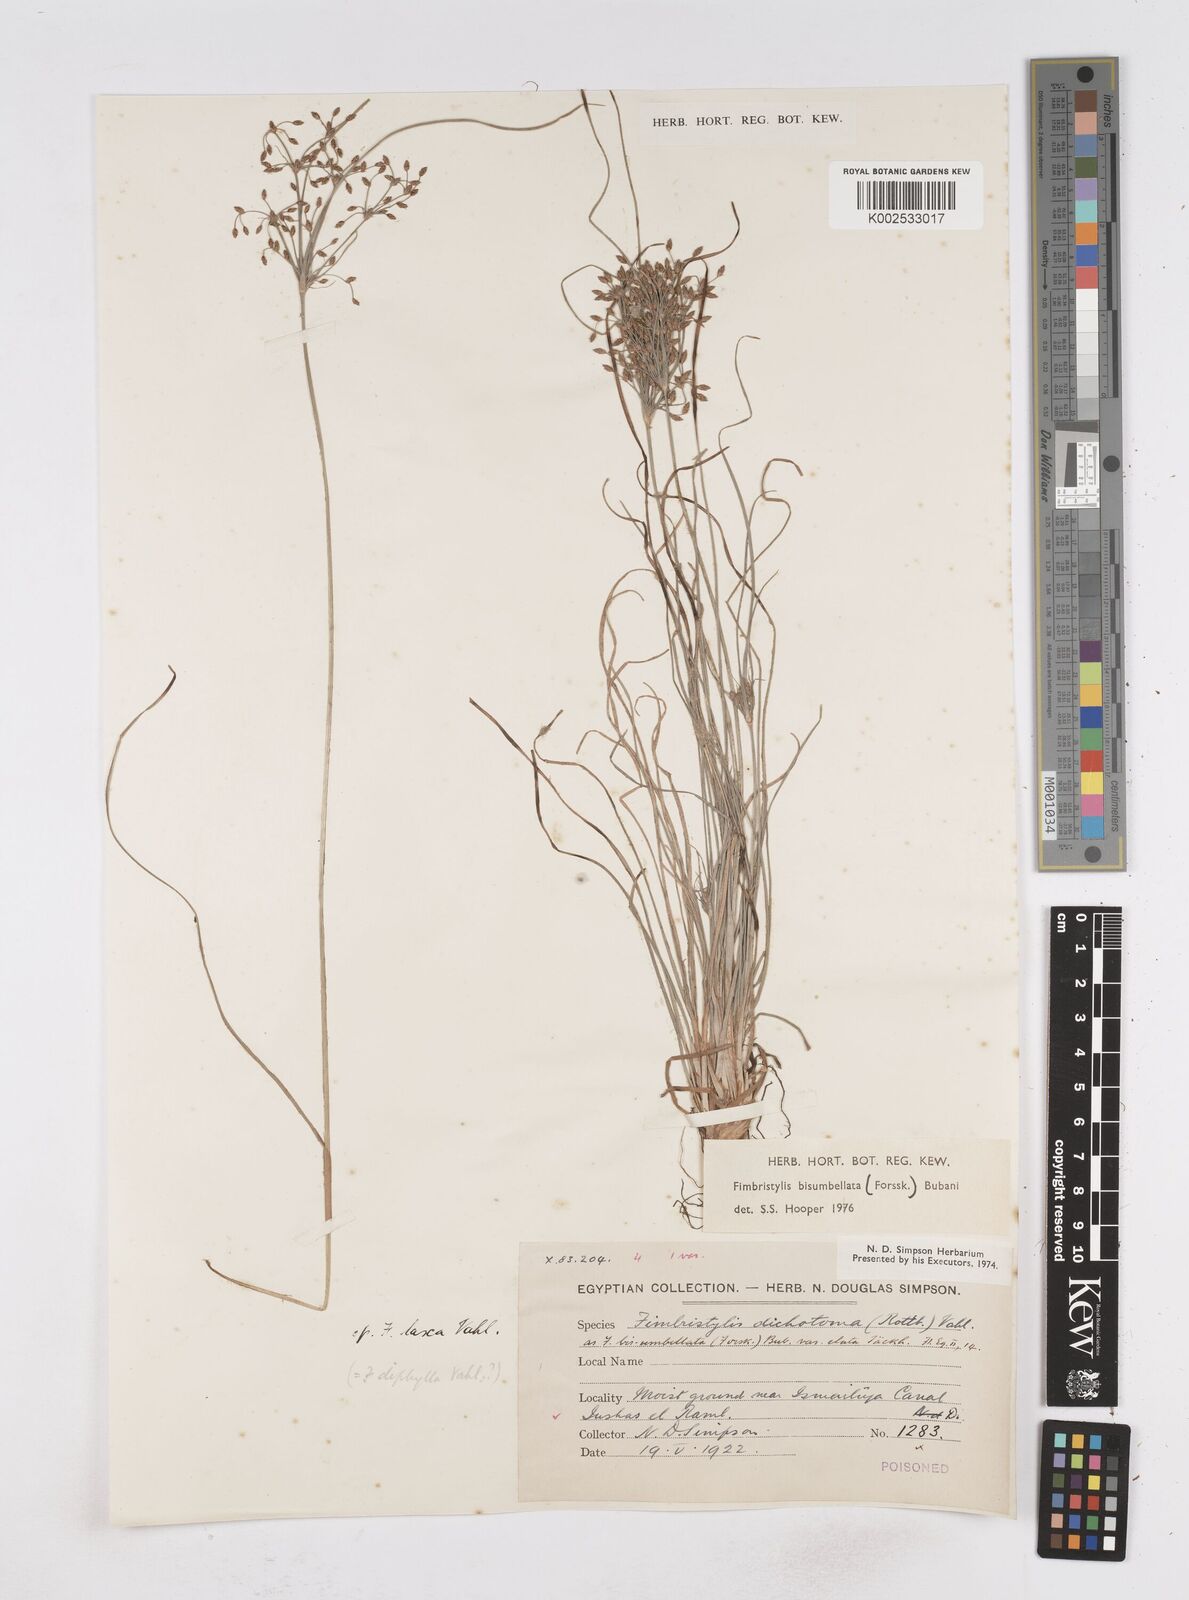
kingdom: Plantae
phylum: Tracheophyta
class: Liliopsida
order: Poales
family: Cyperaceae
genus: Fimbristylis
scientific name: Fimbristylis bisumbellata
